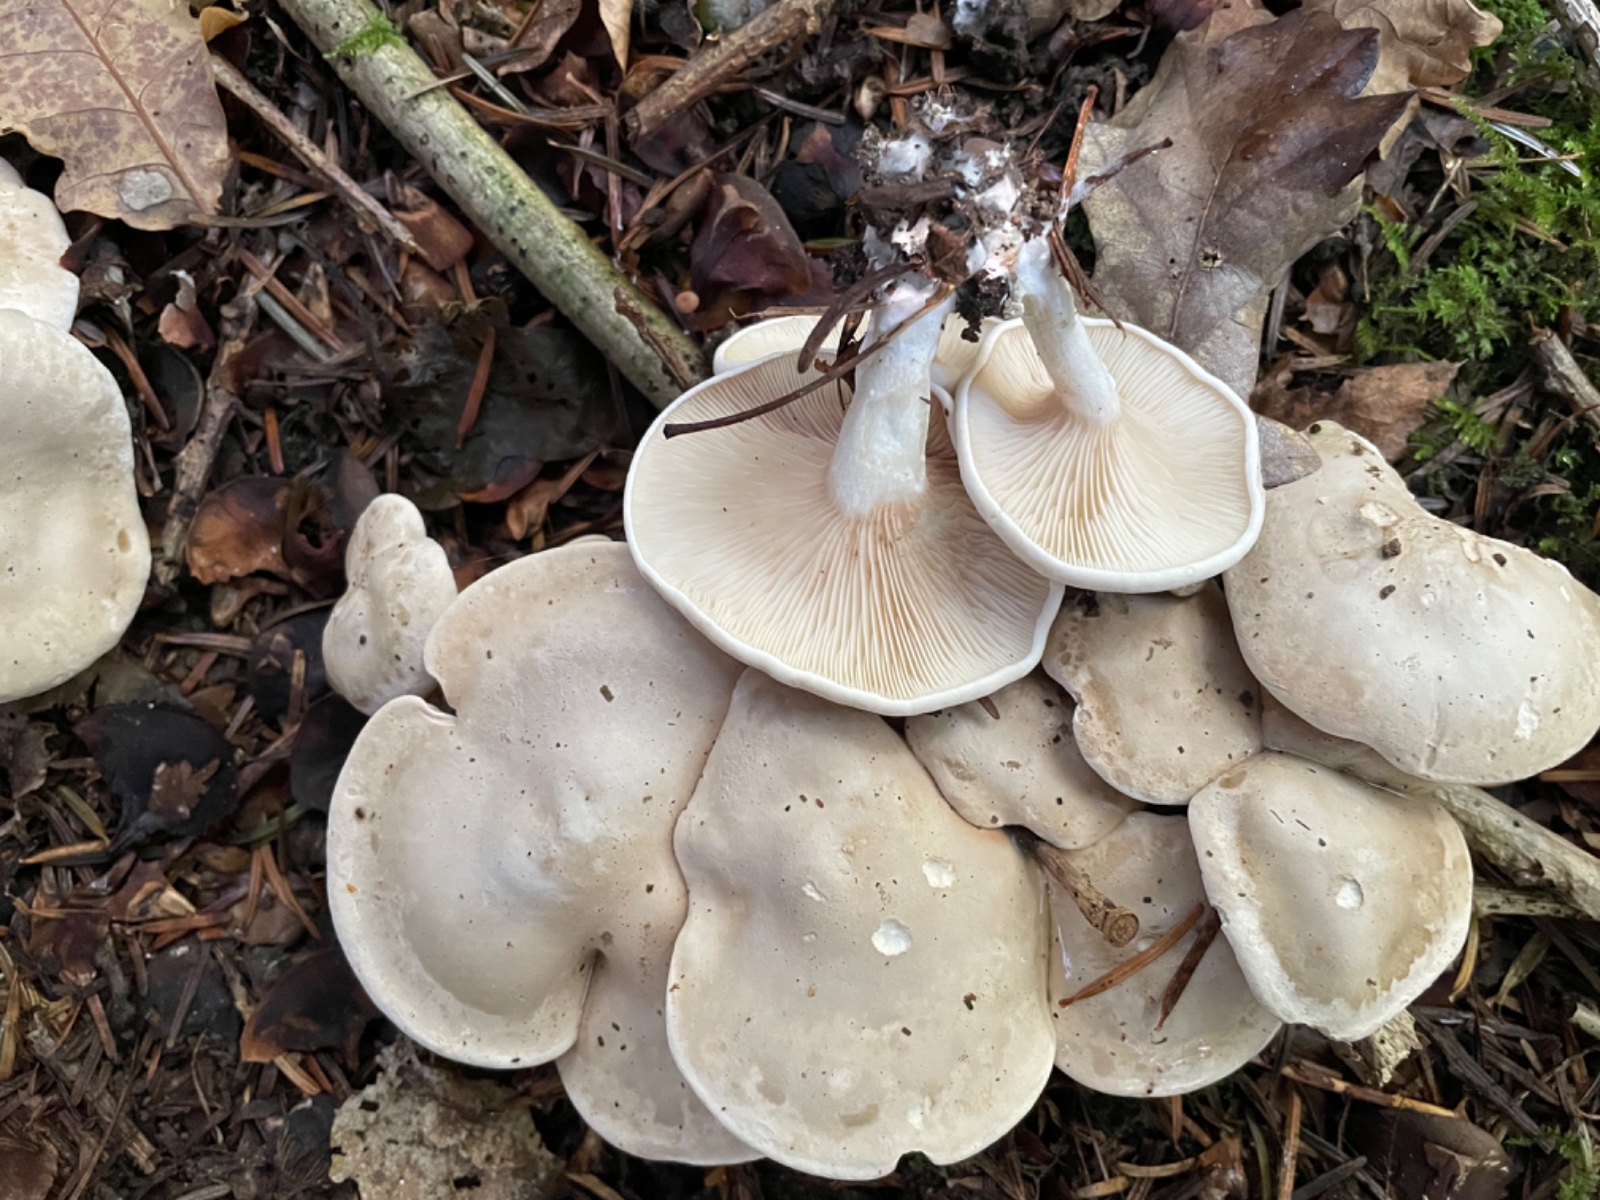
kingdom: Fungi
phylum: Basidiomycota
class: Agaricomycetes
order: Agaricales
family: Entolomataceae
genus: Clitopilus
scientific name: Clitopilus prunulus
